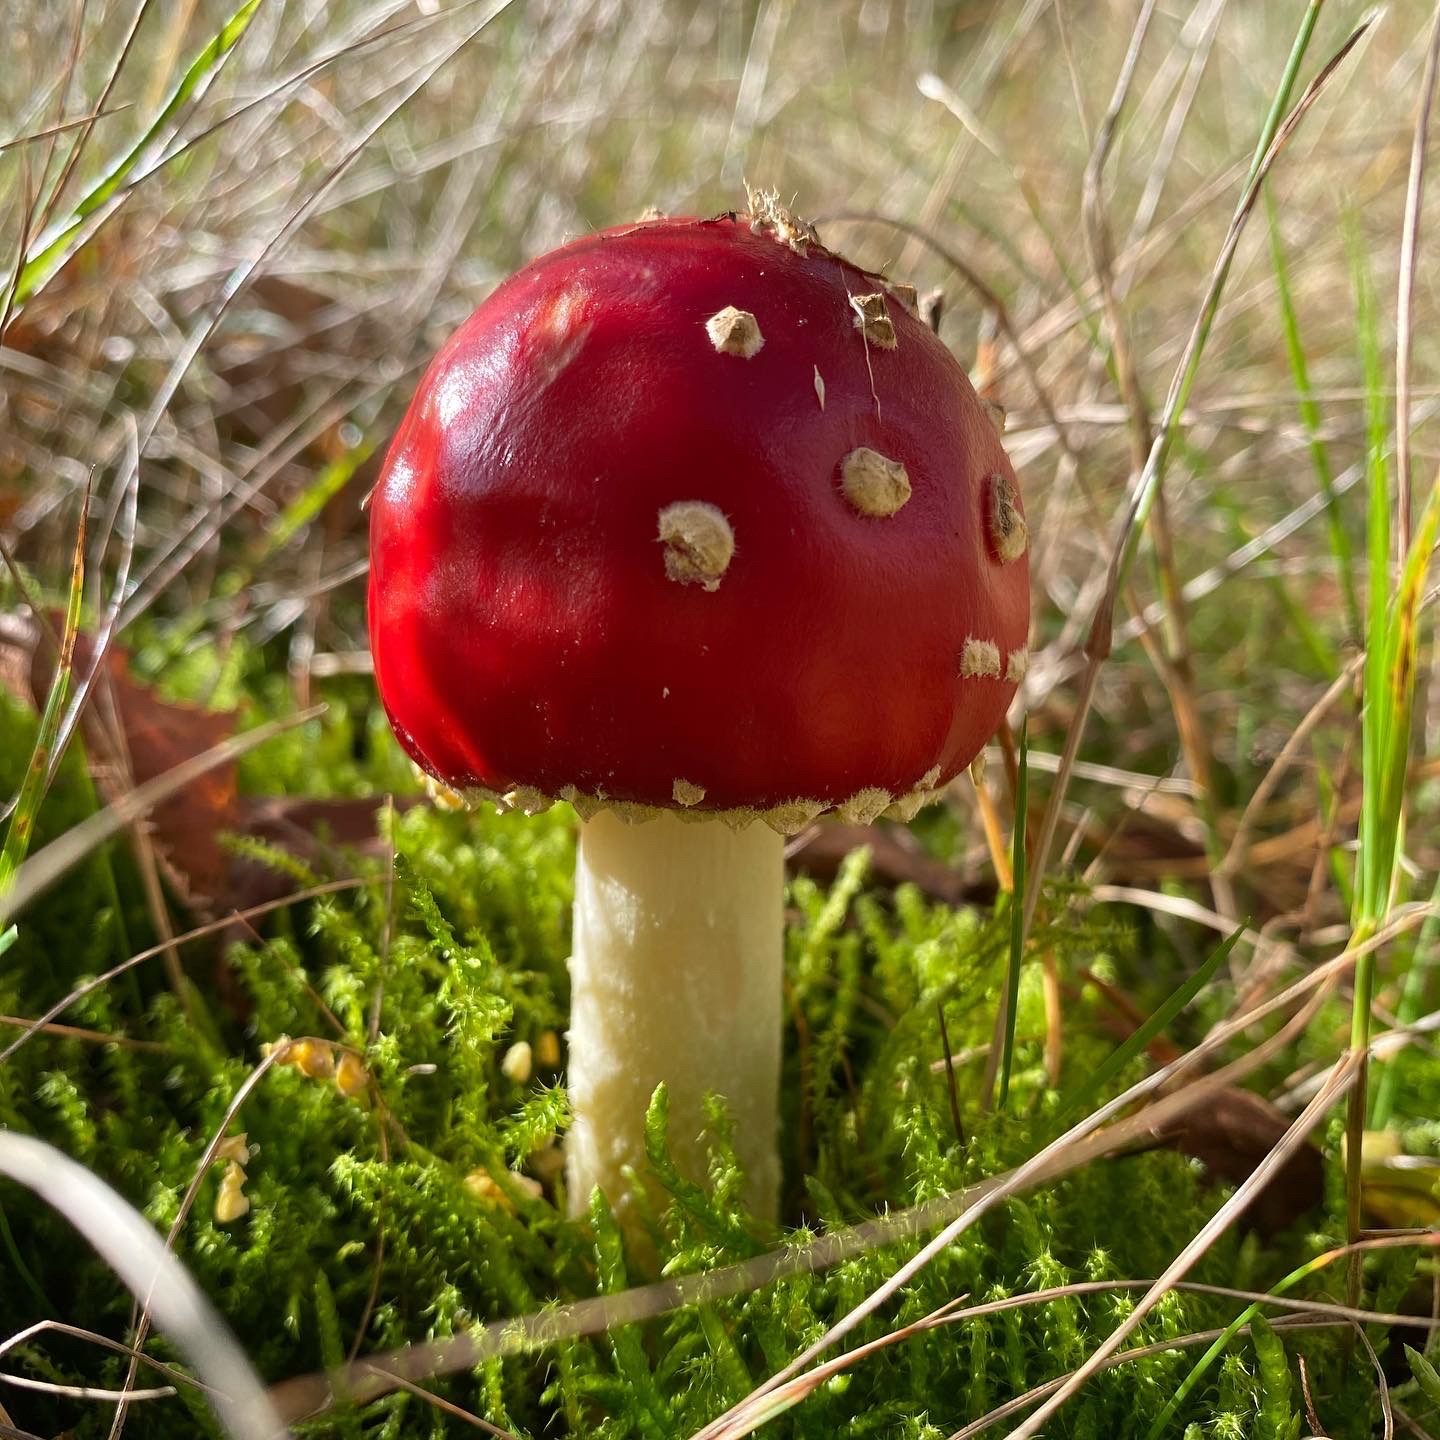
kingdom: Fungi
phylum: Basidiomycota
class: Agaricomycetes
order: Agaricales
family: Amanitaceae
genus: Amanita
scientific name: Amanita muscaria
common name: Rød fluesvamp
